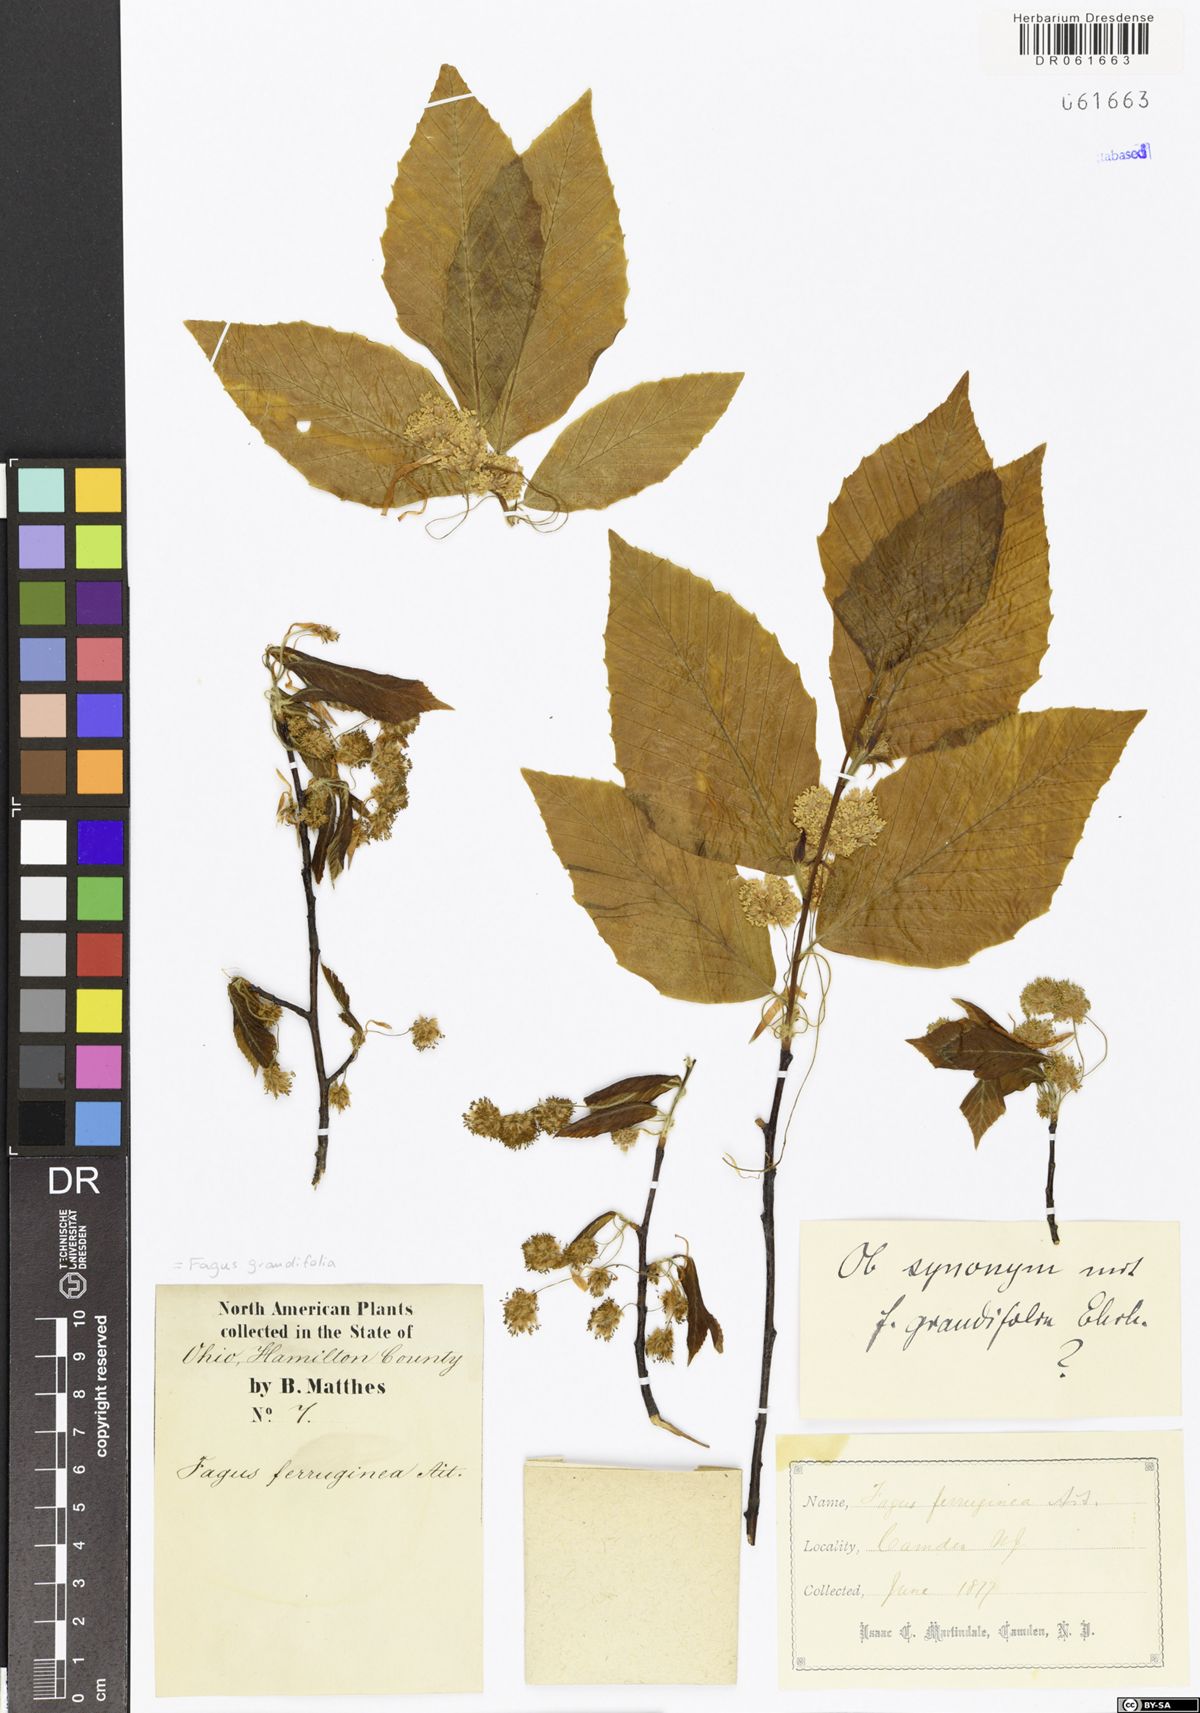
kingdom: Plantae
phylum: Tracheophyta
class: Magnoliopsida
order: Fagales
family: Fagaceae
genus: Fagus
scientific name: Fagus grandifolia
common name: American beech
